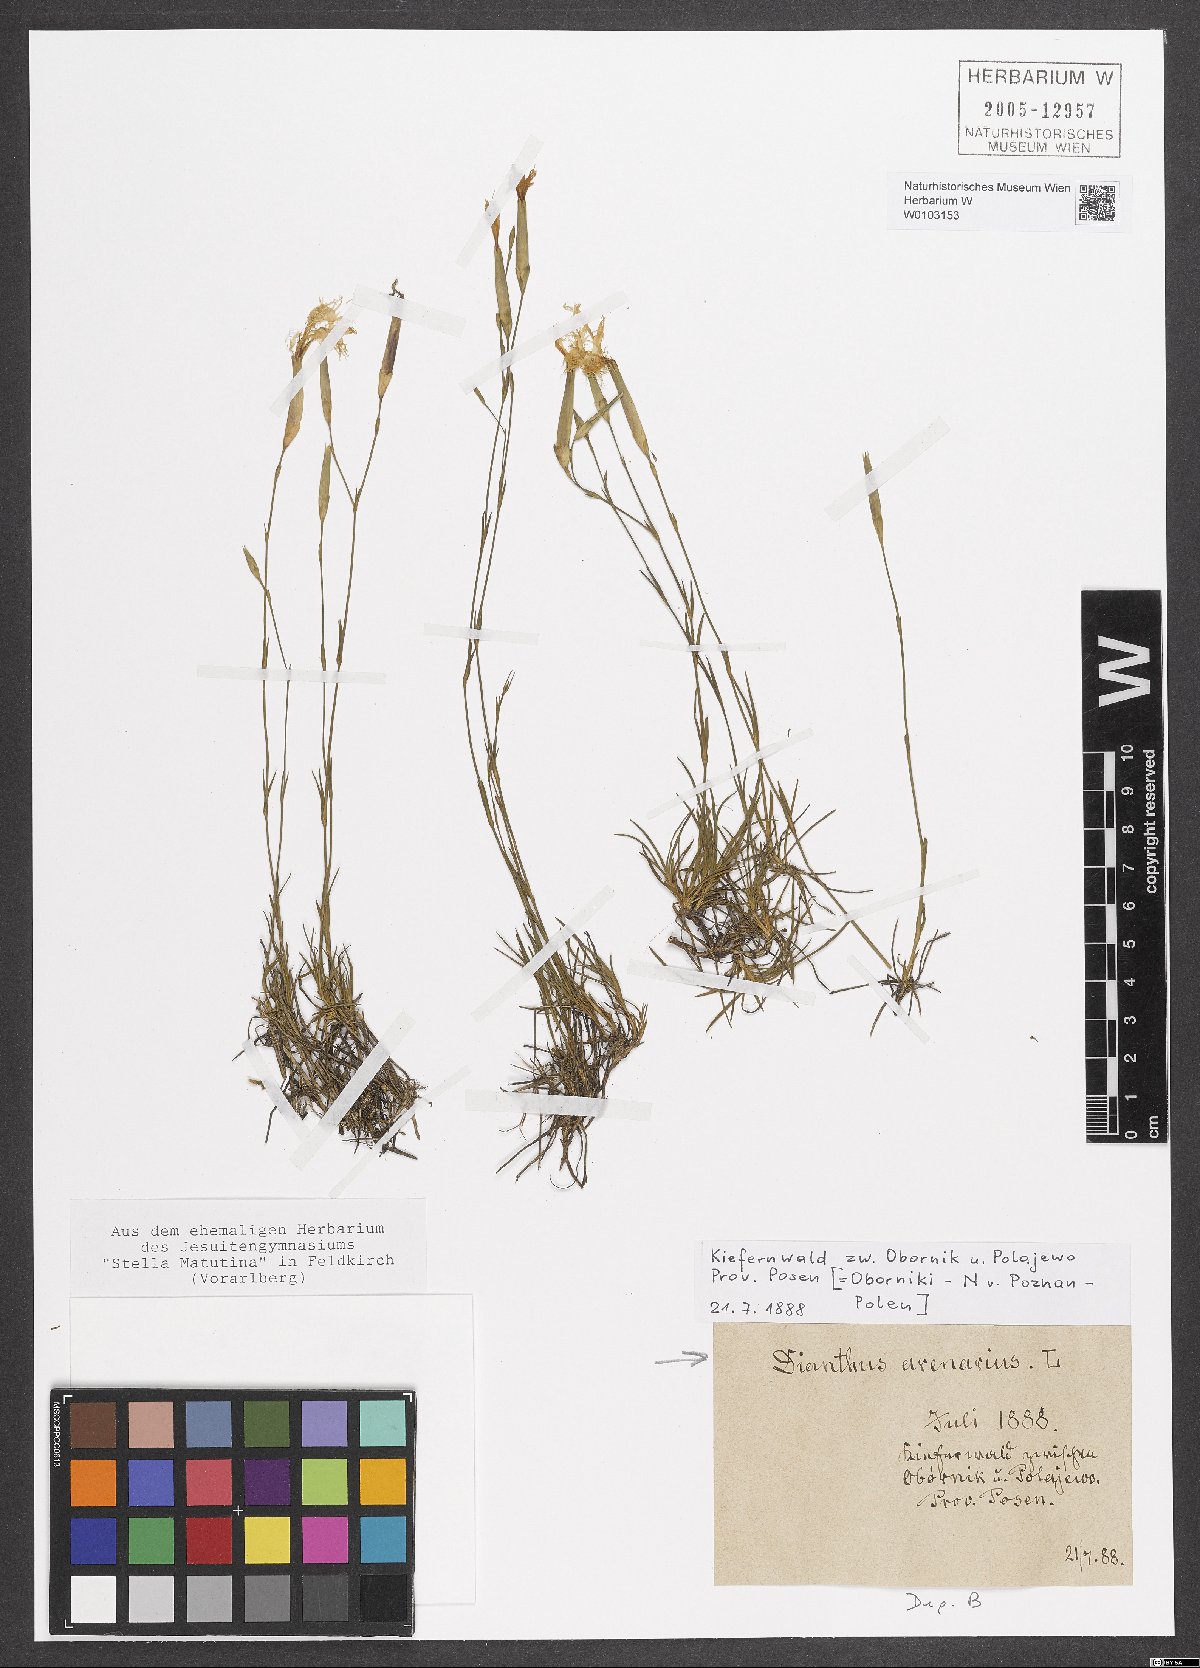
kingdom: Plantae
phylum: Tracheophyta
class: Magnoliopsida
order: Caryophyllales
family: Caryophyllaceae
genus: Dianthus
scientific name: Dianthus arenarius
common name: Stone pink
